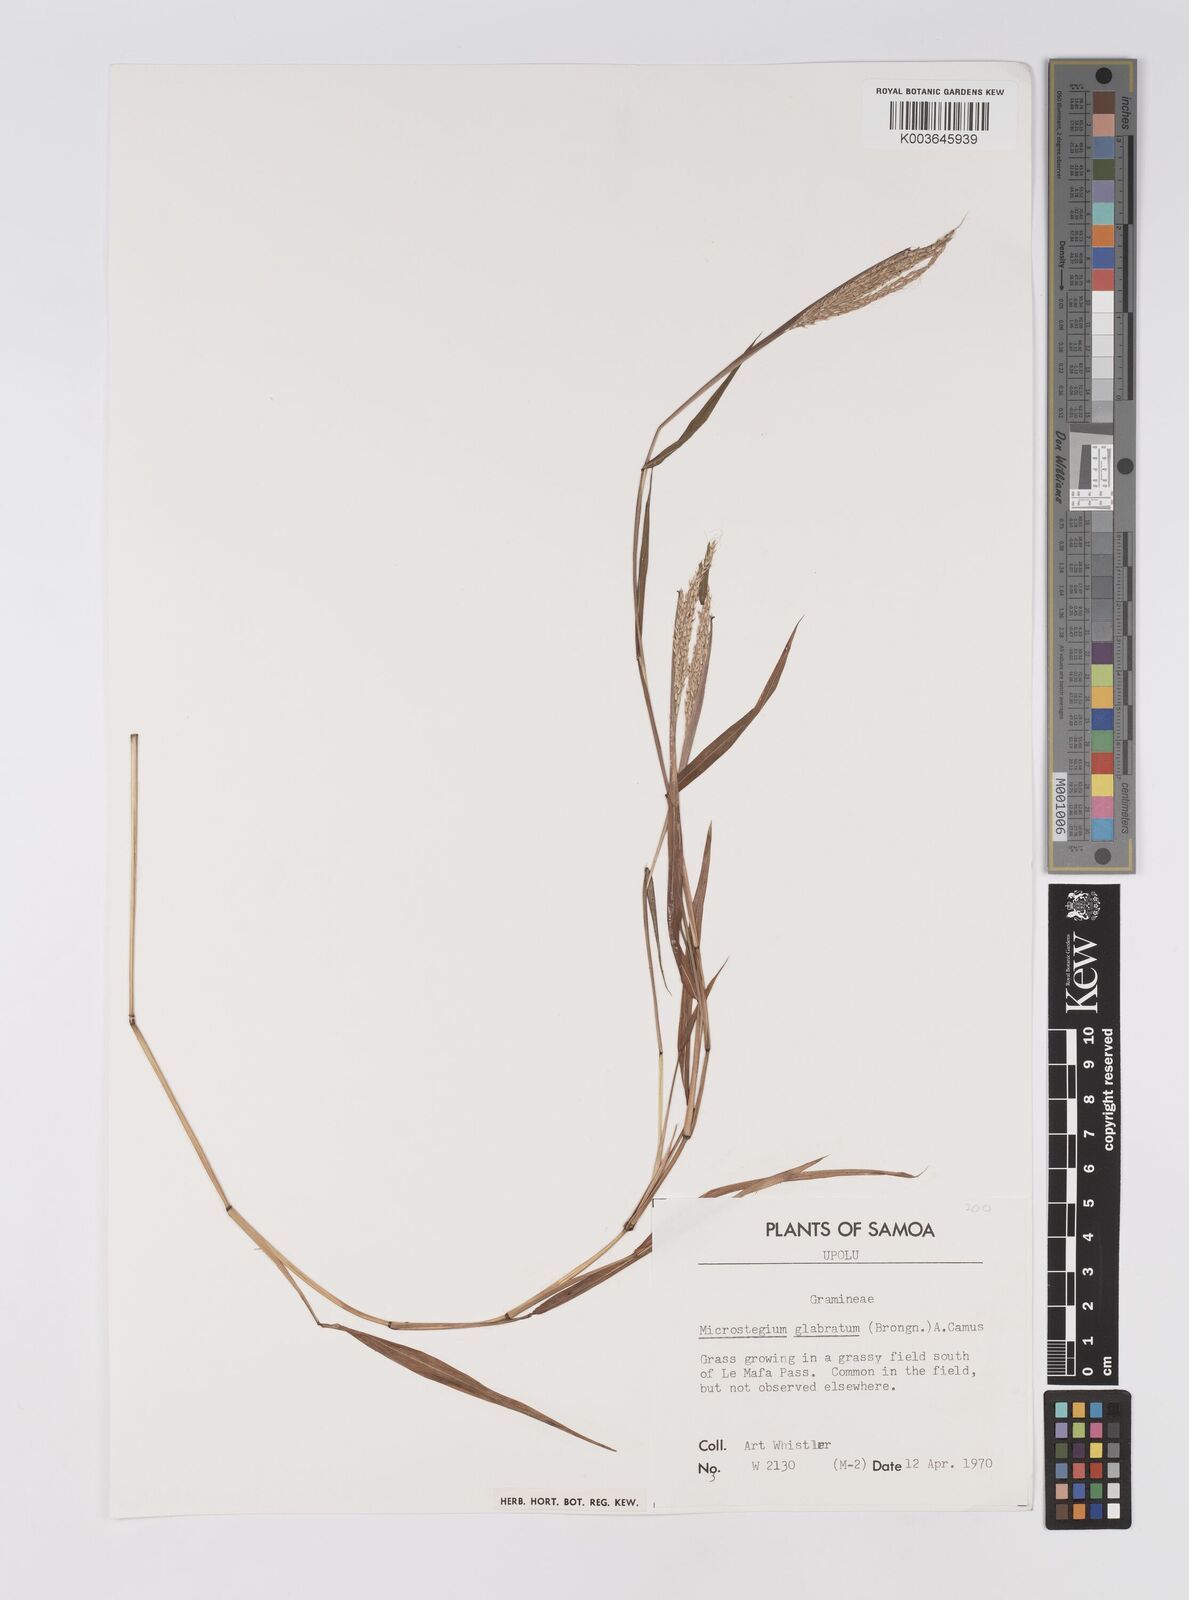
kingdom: Plantae
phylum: Tracheophyta
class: Liliopsida
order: Poales
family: Poaceae
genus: Microstegium
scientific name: Microstegium glabratum
